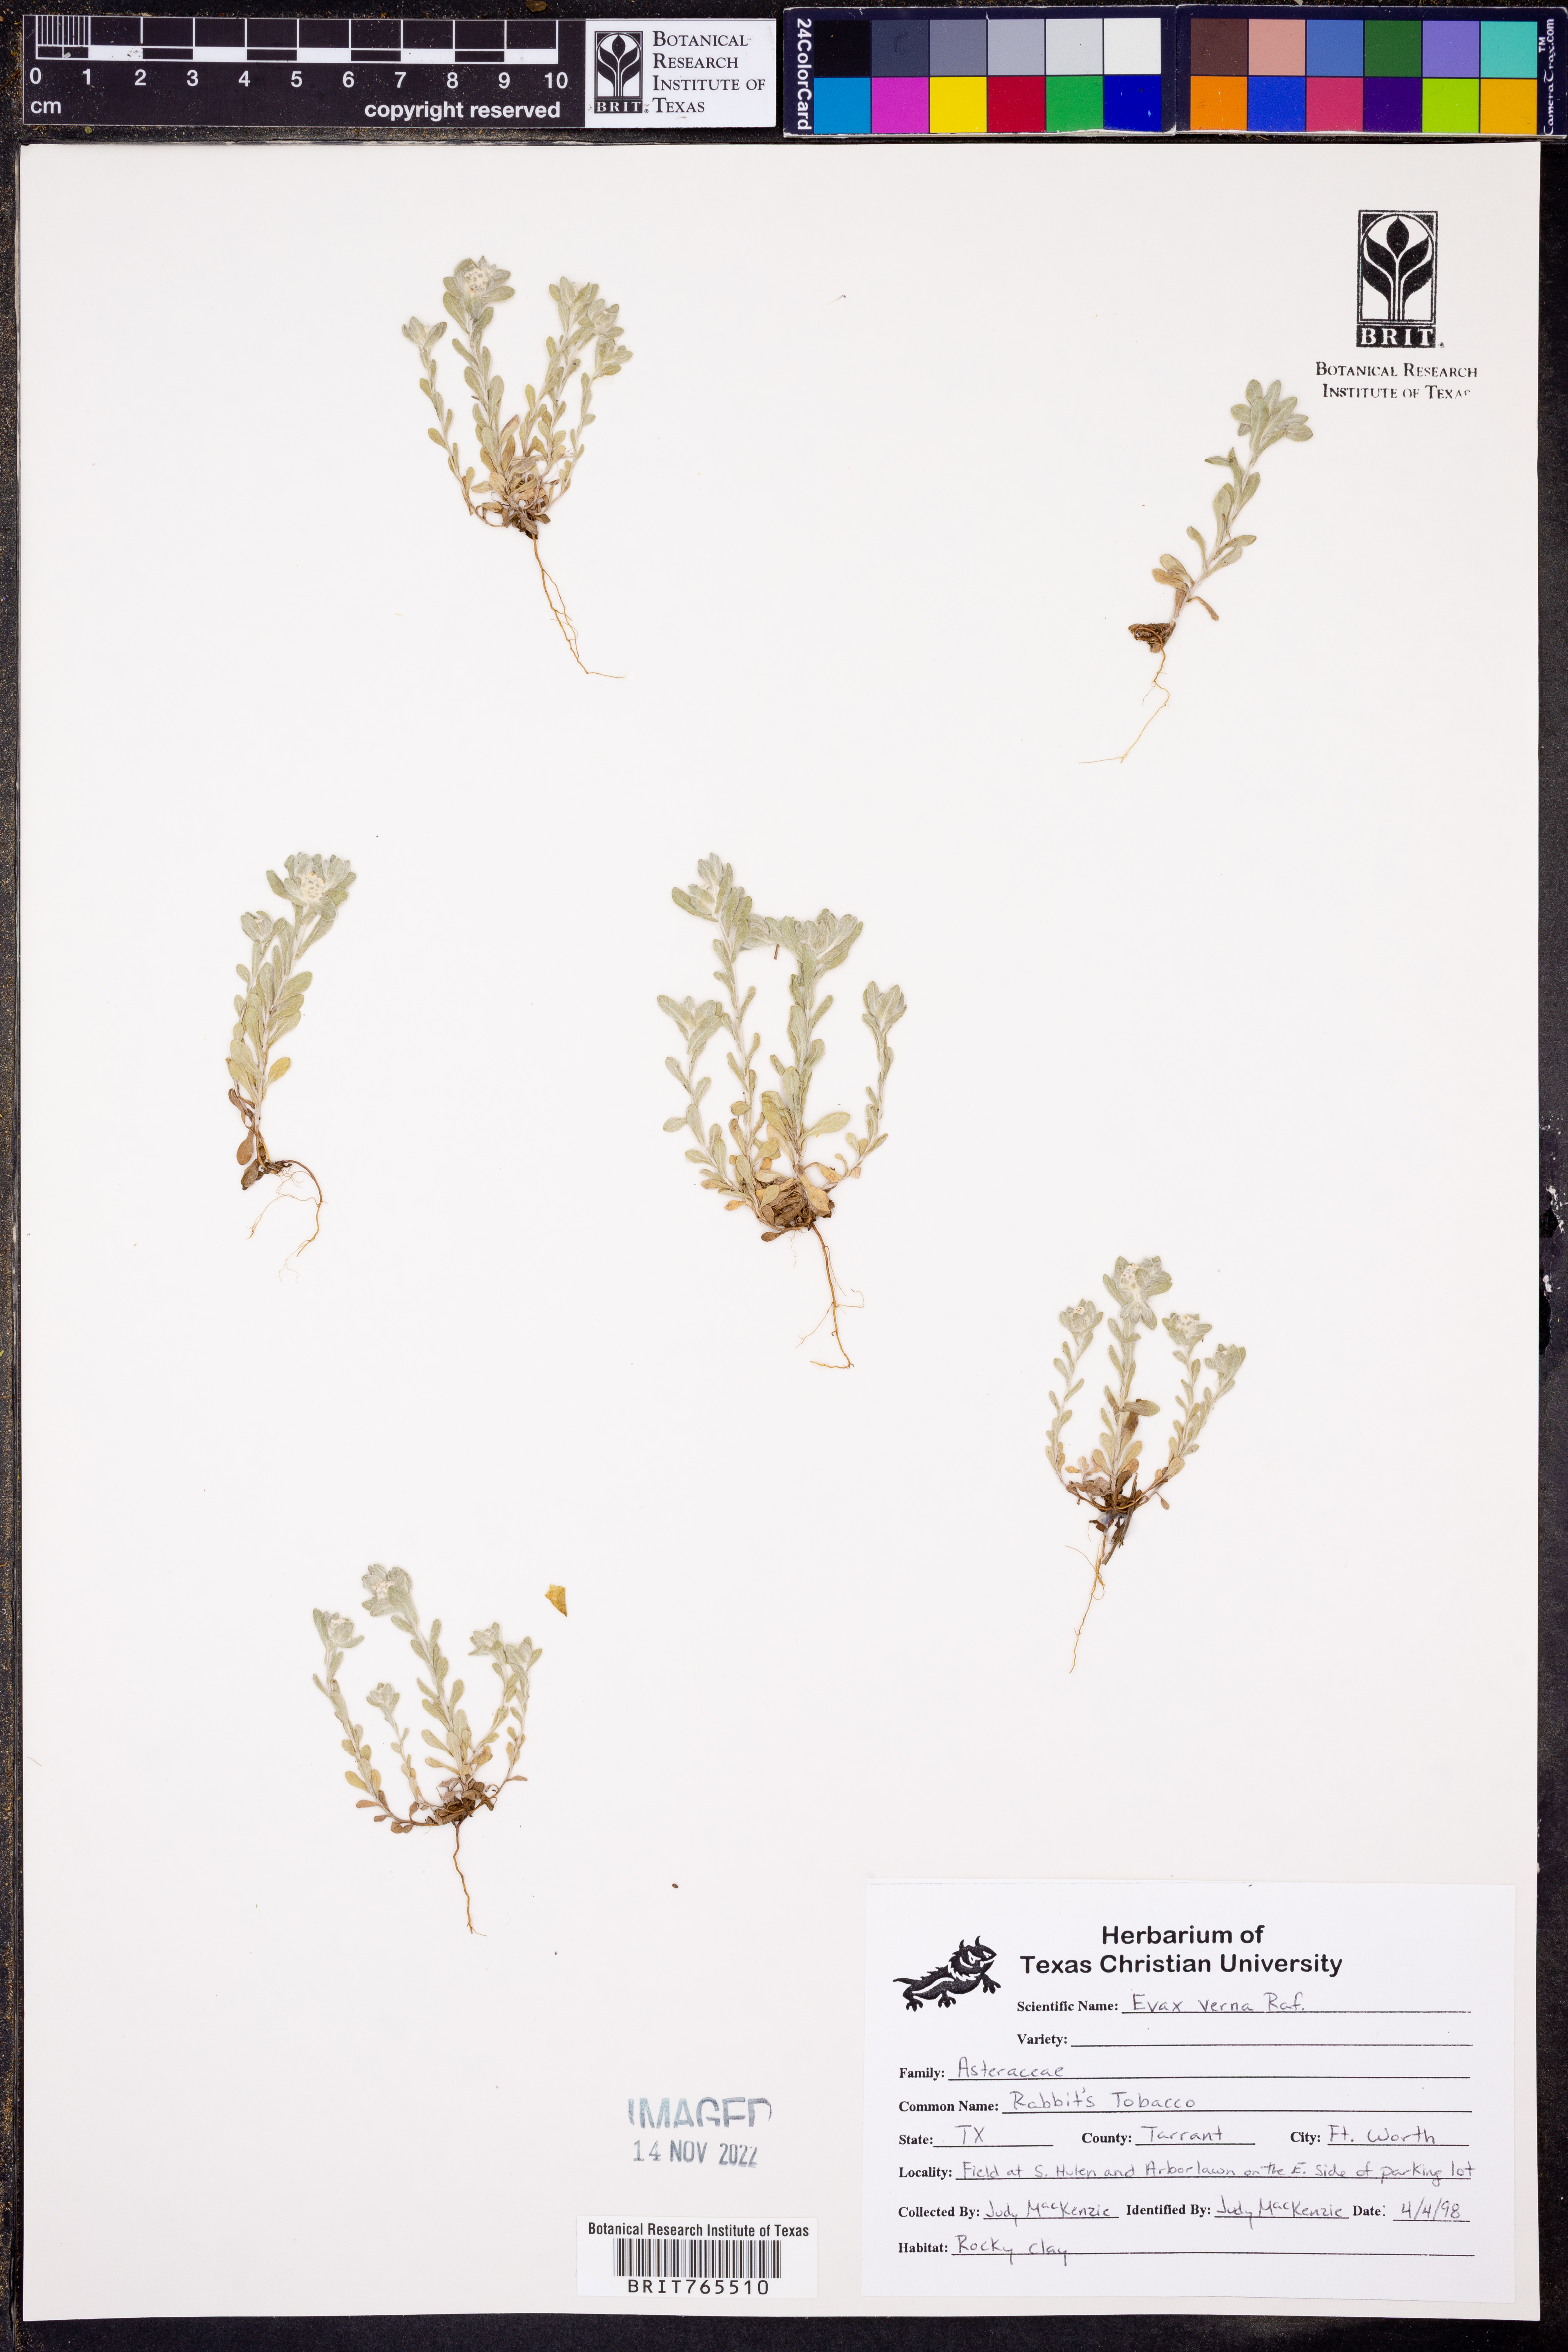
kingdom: Plantae
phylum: Tracheophyta
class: Magnoliopsida
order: Asterales
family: Asteraceae
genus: Diaperia
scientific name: Diaperia verna
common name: Many-stem rabbit-tobacco
